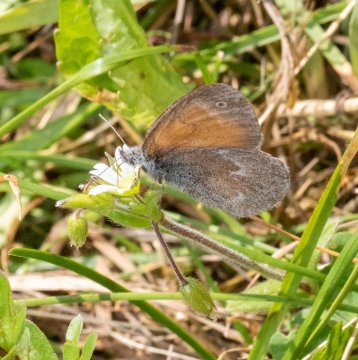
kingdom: Animalia
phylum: Arthropoda
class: Insecta
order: Lepidoptera
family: Nymphalidae
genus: Coenonympha
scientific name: Coenonympha tullia
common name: Large Heath
